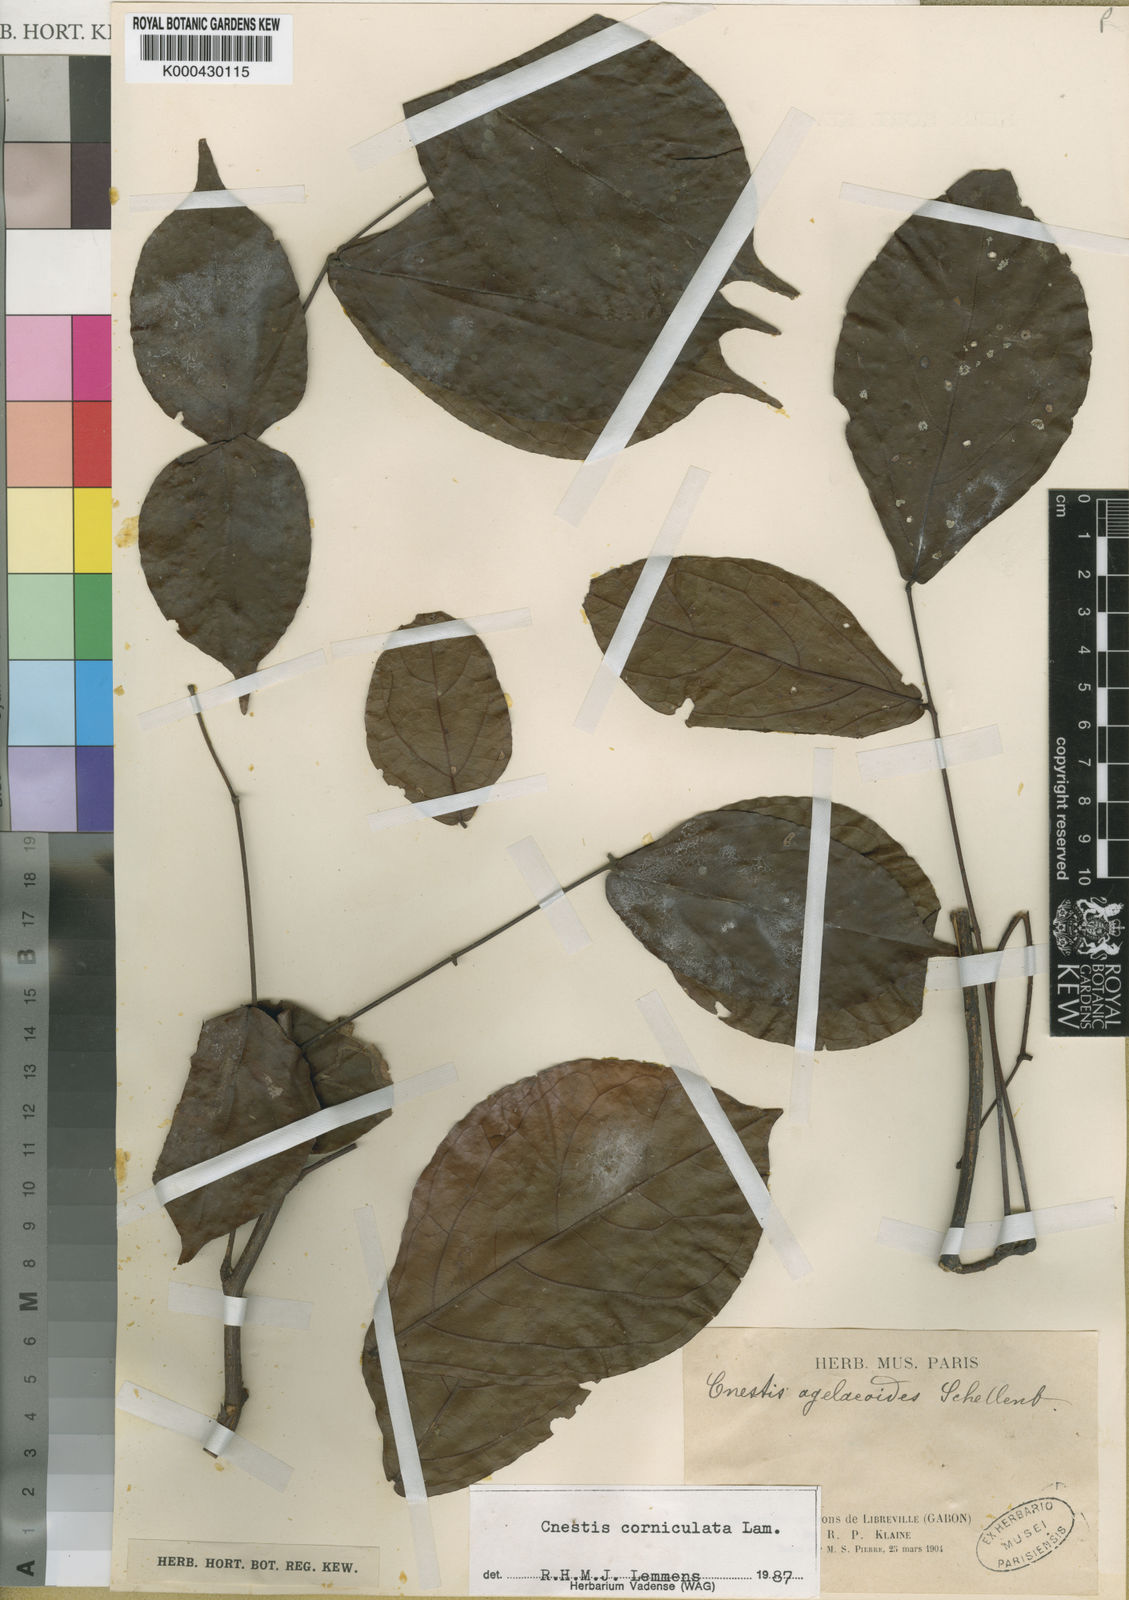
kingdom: Plantae
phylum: Tracheophyta
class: Magnoliopsida
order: Oxalidales
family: Connaraceae
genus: Cnestis
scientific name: Cnestis corniculata
